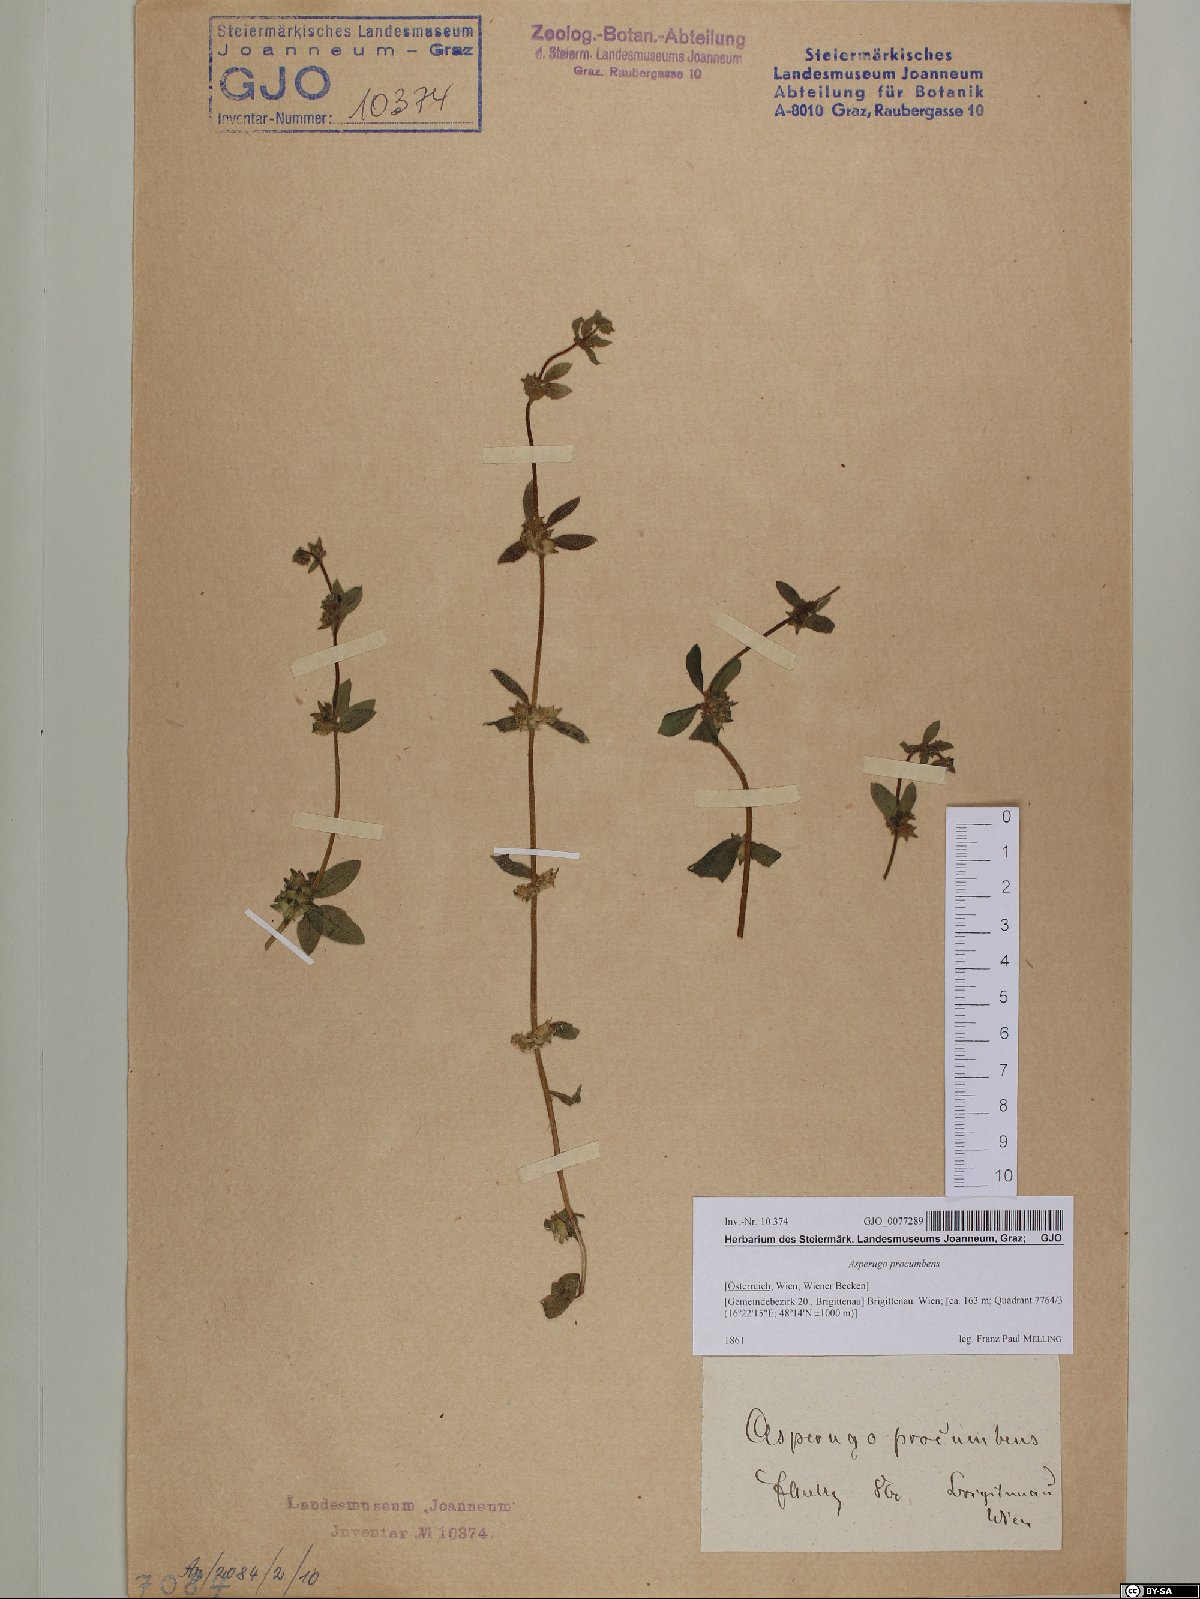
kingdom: Plantae
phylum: Tracheophyta
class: Magnoliopsida
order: Boraginales
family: Boraginaceae
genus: Asperugo
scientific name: Asperugo procumbens
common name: Madwort
